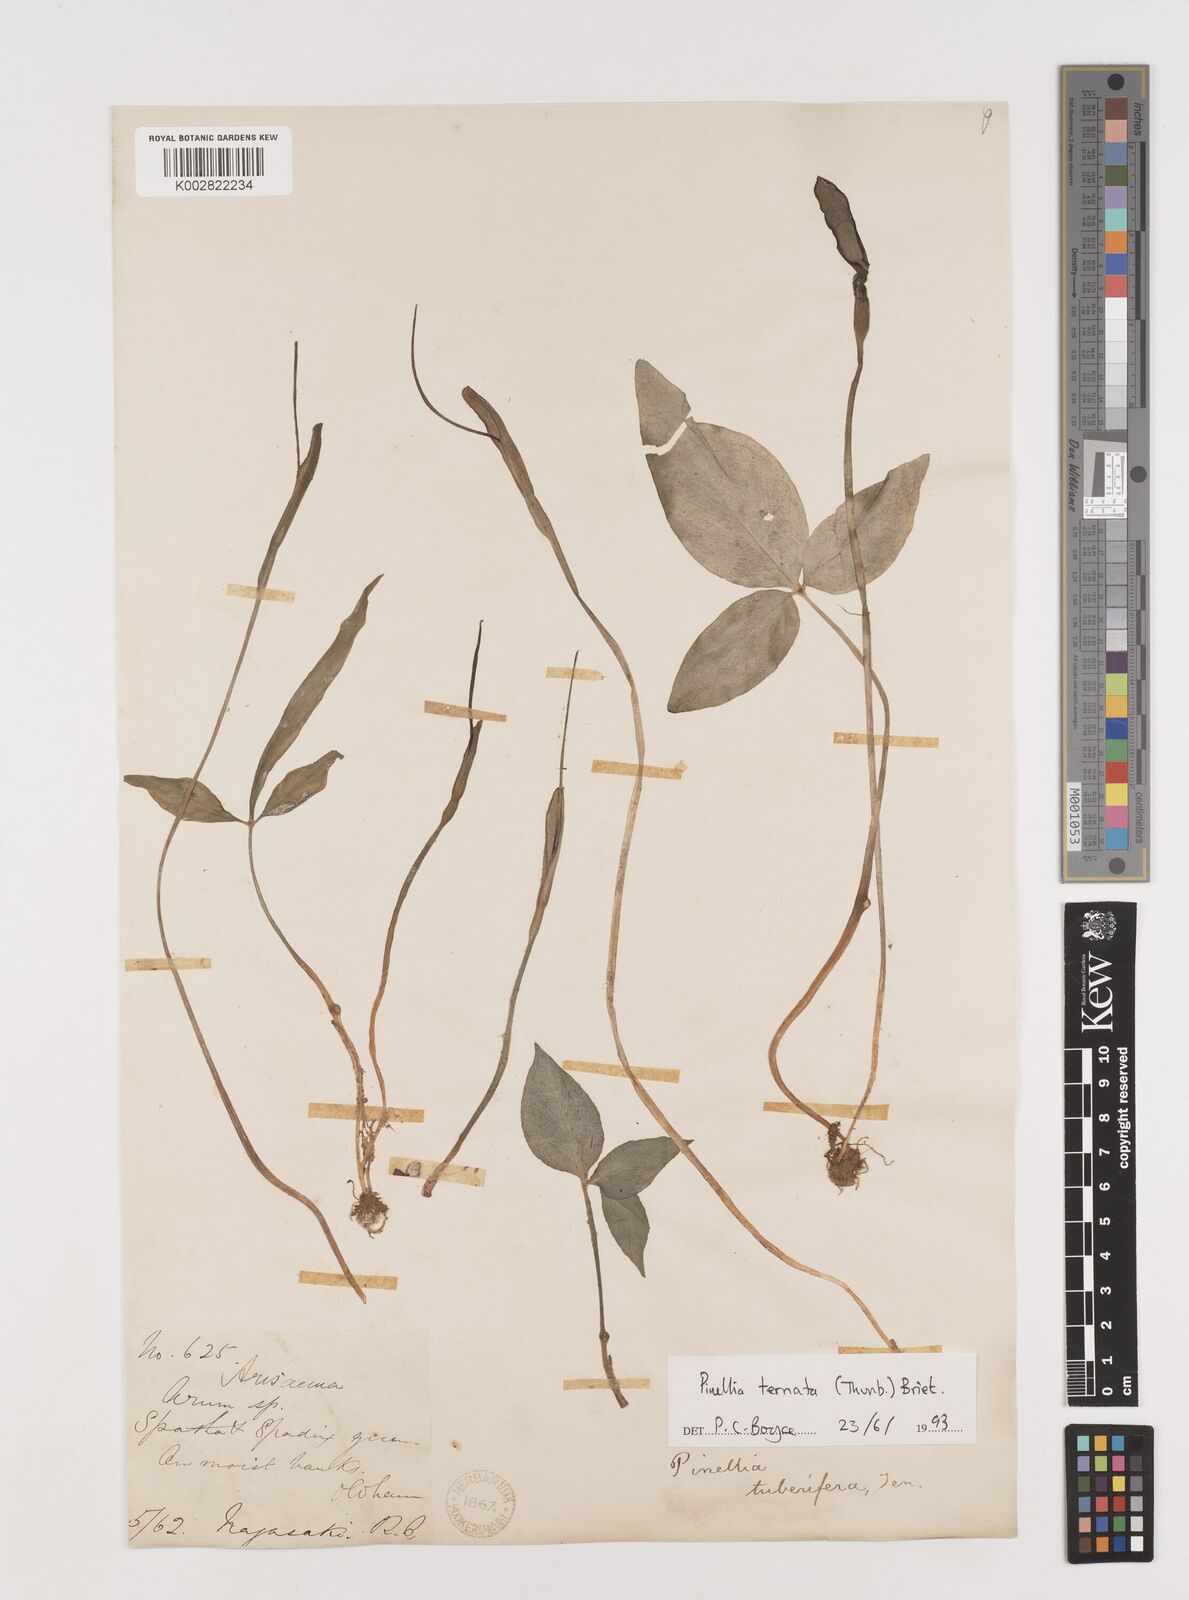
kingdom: Plantae
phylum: Tracheophyta
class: Liliopsida
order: Alismatales
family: Araceae
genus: Pinellia
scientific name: Pinellia ternata
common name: Pinellia
